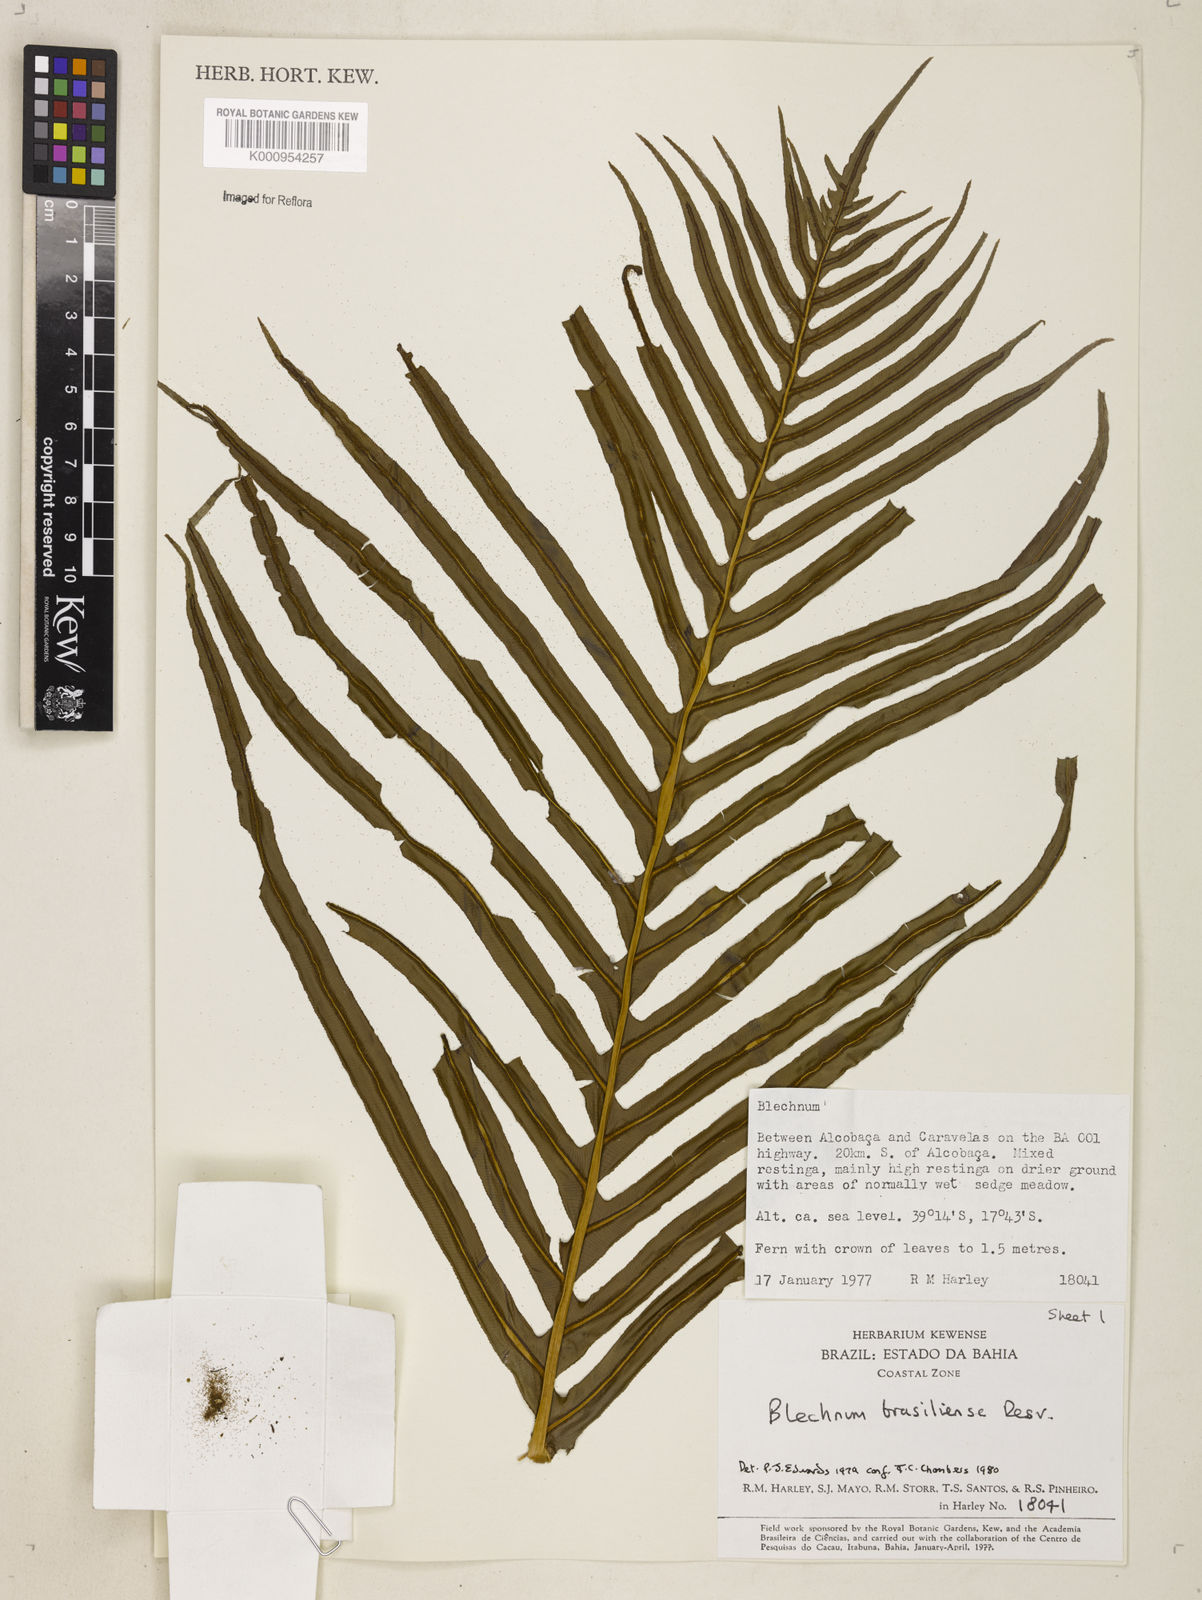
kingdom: Plantae
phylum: Tracheophyta
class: Polypodiopsida
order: Polypodiales
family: Blechnaceae
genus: Neoblechnum
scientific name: Neoblechnum brasiliense
